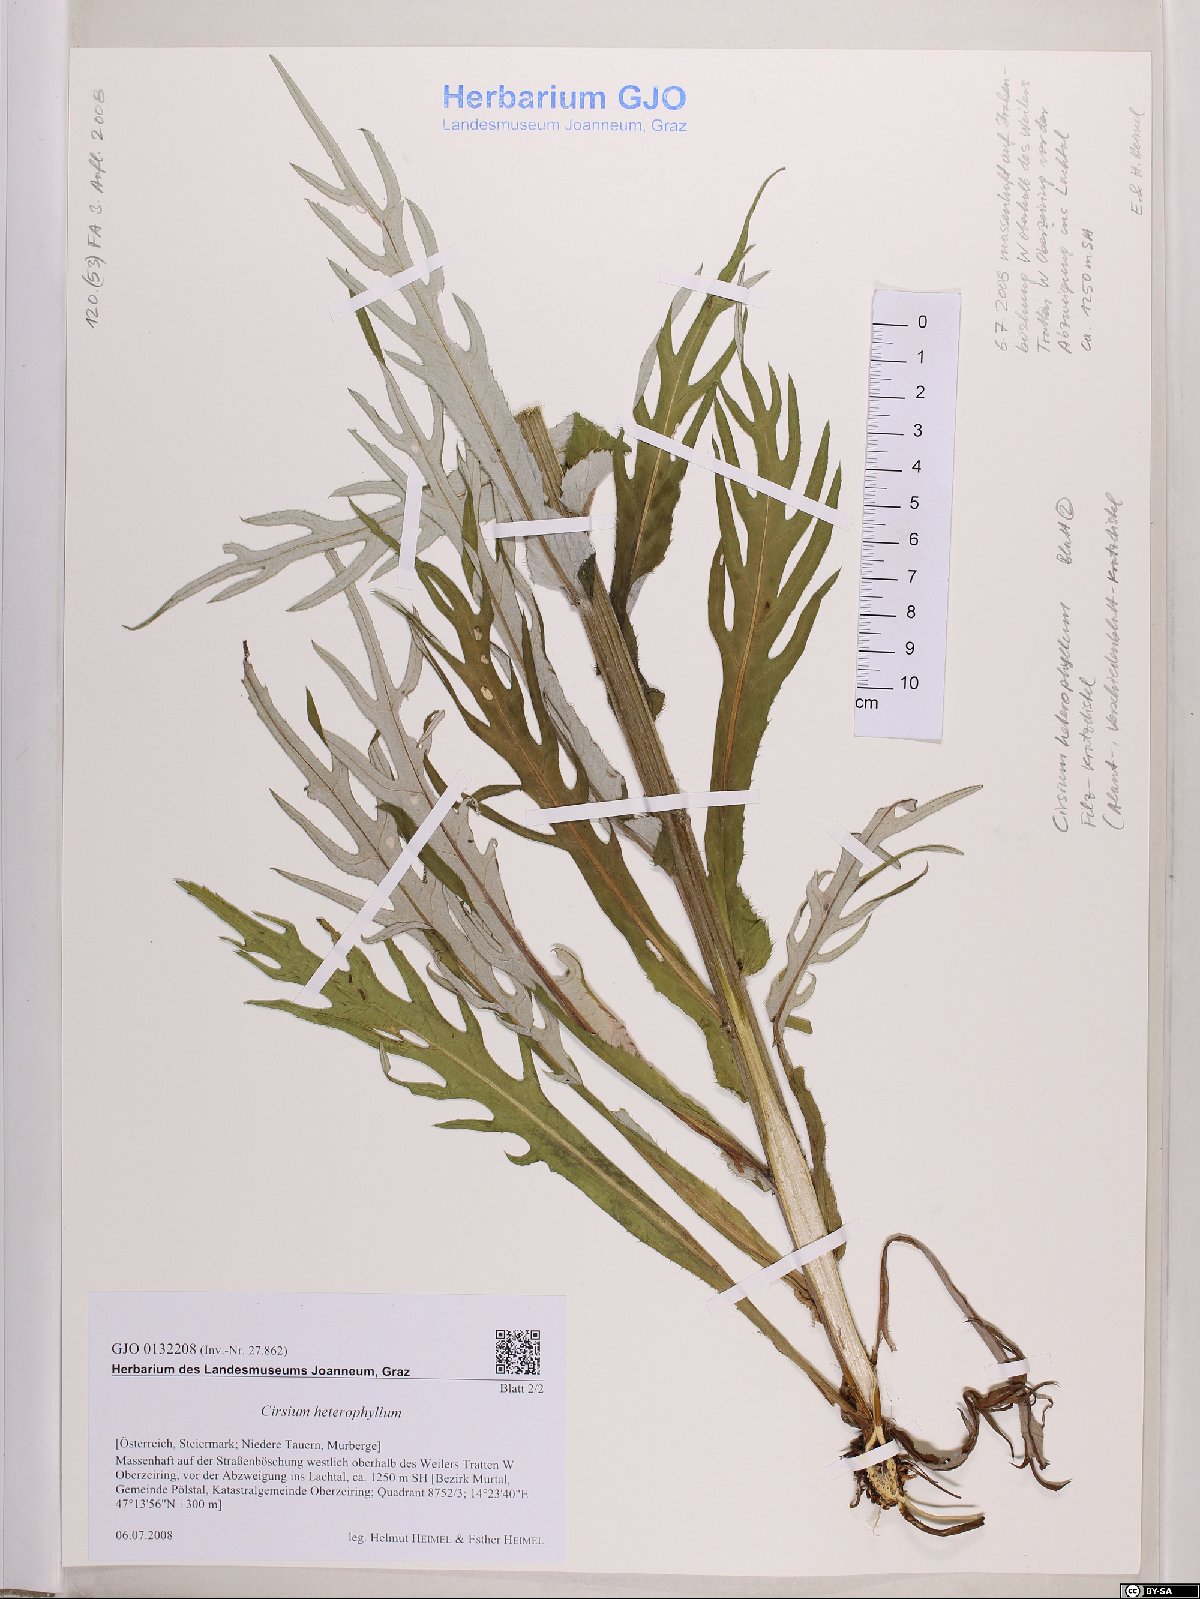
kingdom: Plantae
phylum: Tracheophyta
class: Magnoliopsida
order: Asterales
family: Asteraceae
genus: Cirsium
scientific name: Cirsium heterophyllum
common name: Melancholy thistle
